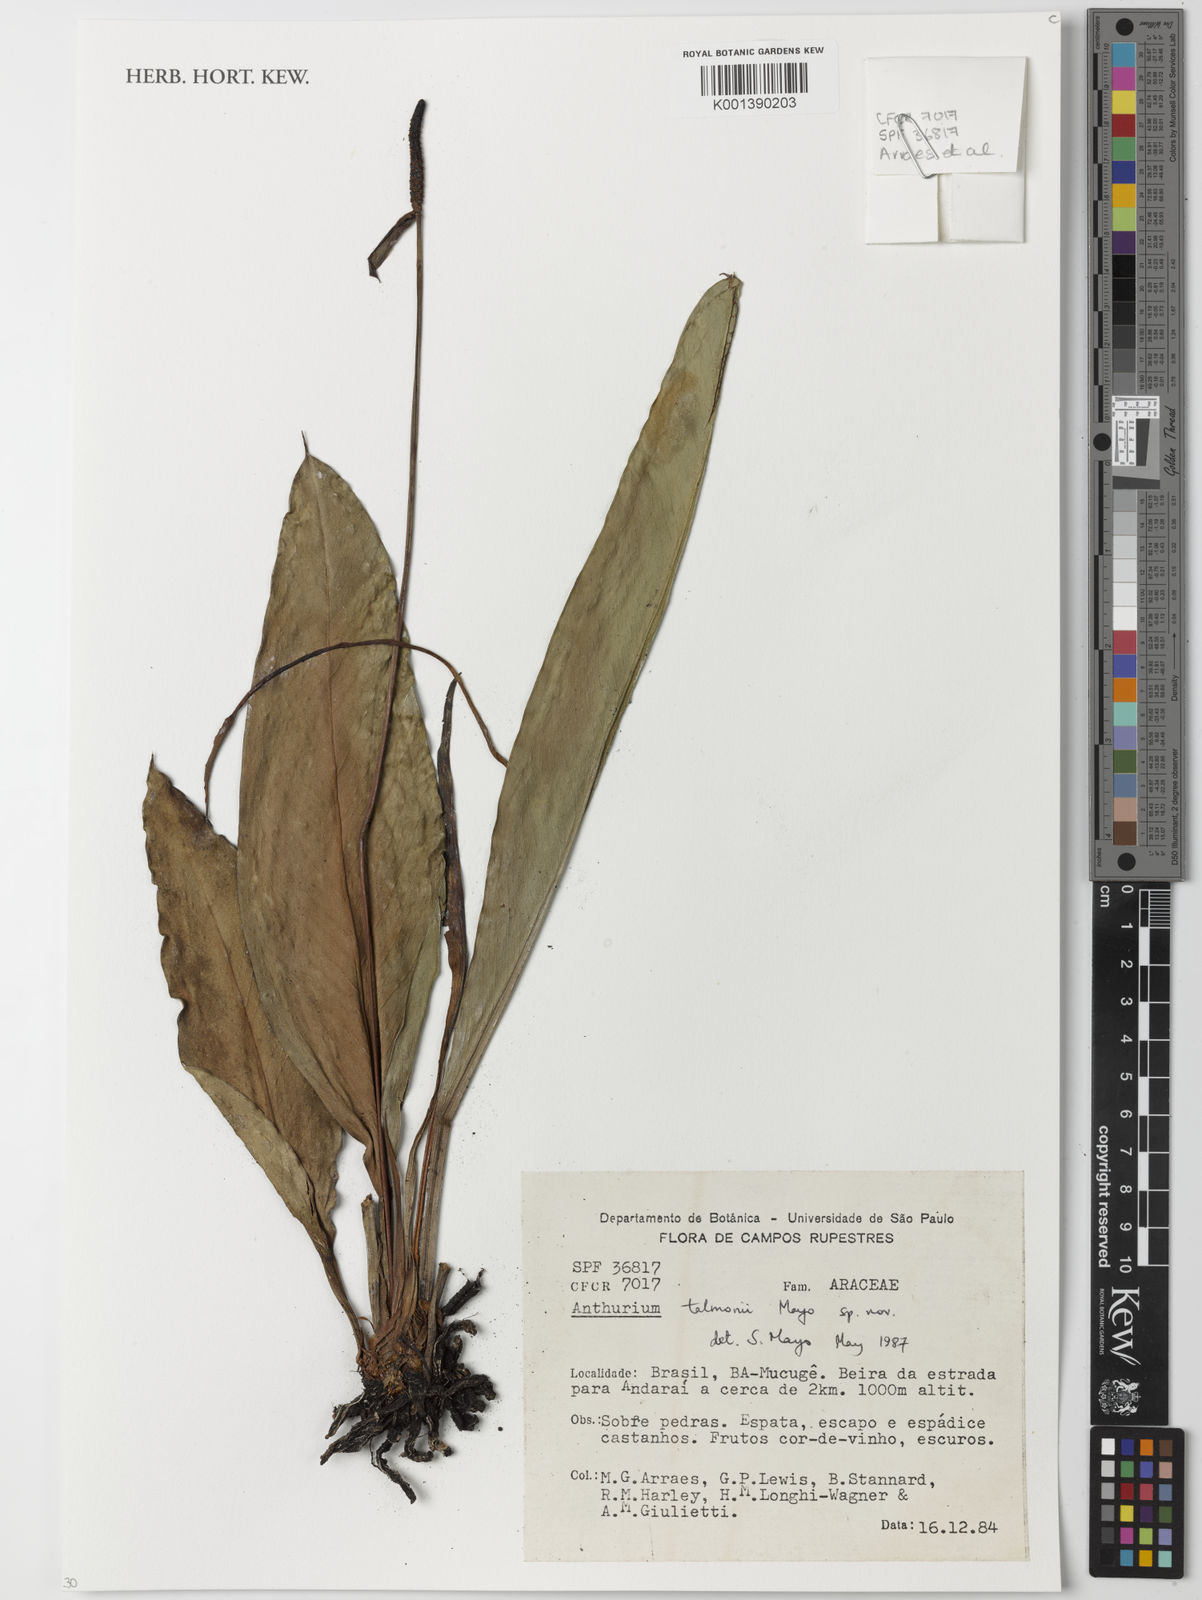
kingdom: Plantae
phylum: Tracheophyta
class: Liliopsida
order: Alismatales
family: Araceae
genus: Anthurium
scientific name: Anthurium talmonii
